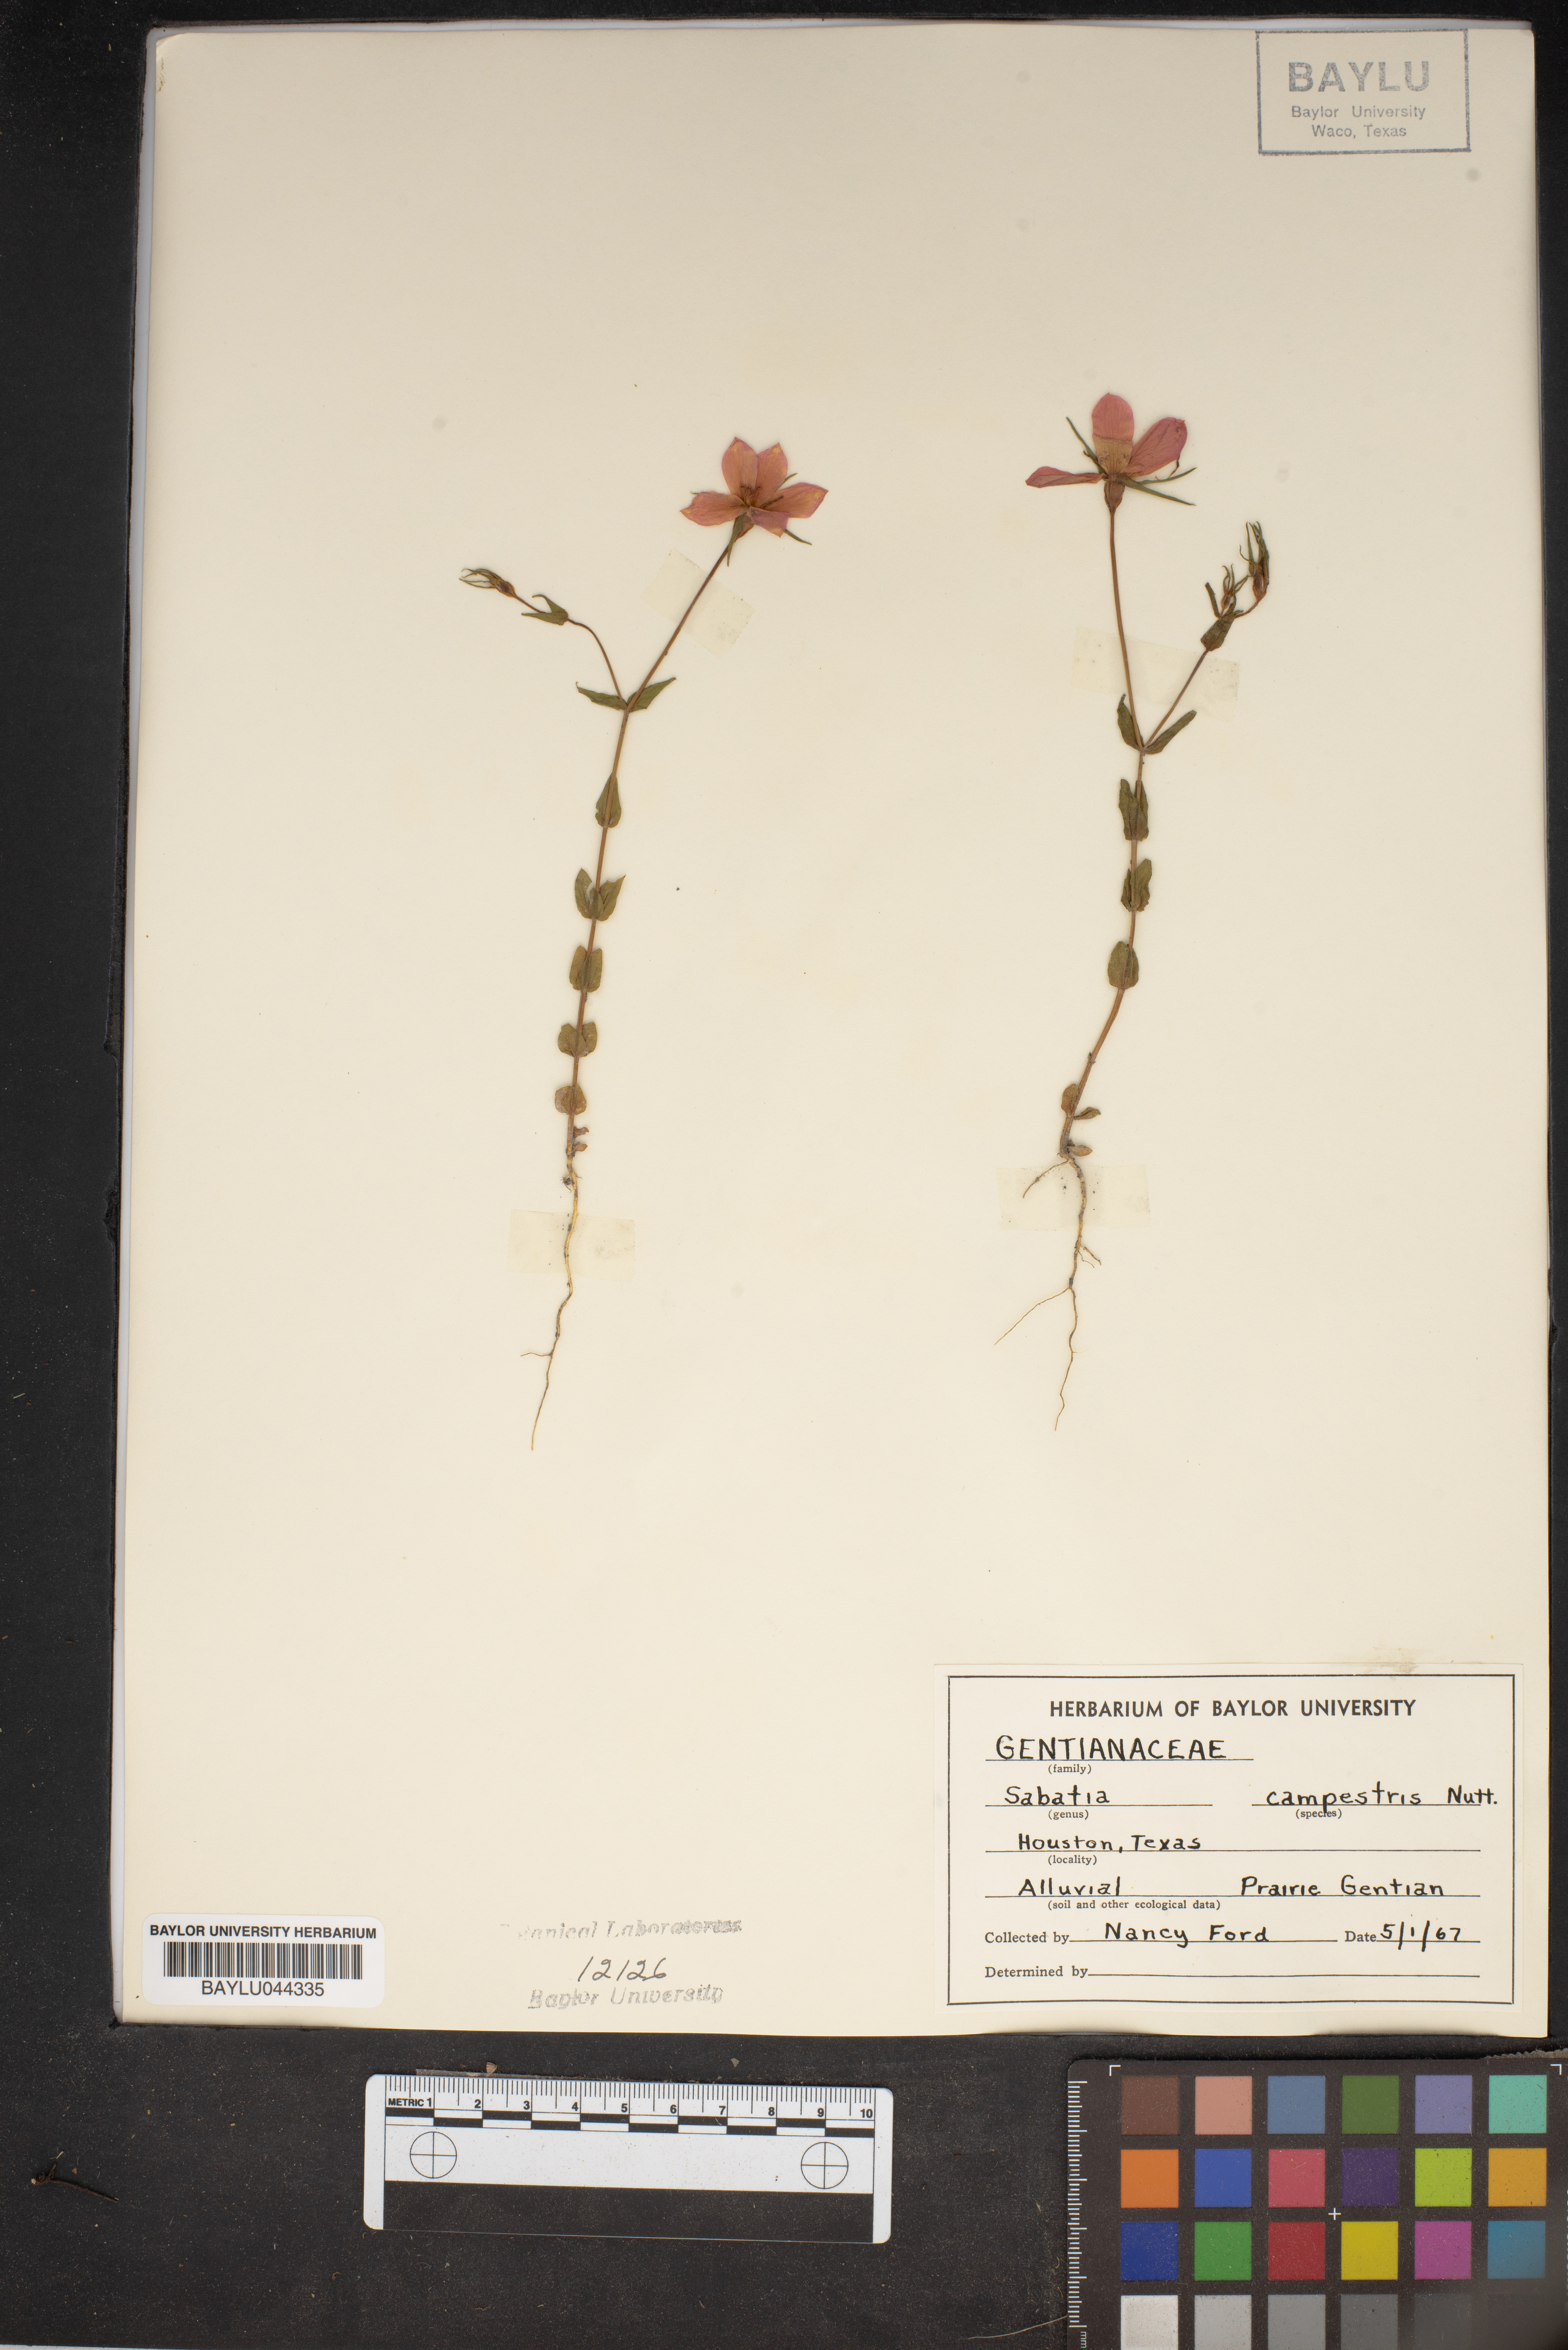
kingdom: Plantae
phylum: Tracheophyta
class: Magnoliopsida
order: Gentianales
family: Gentianaceae
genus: Sabatia
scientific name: Sabatia campestris
